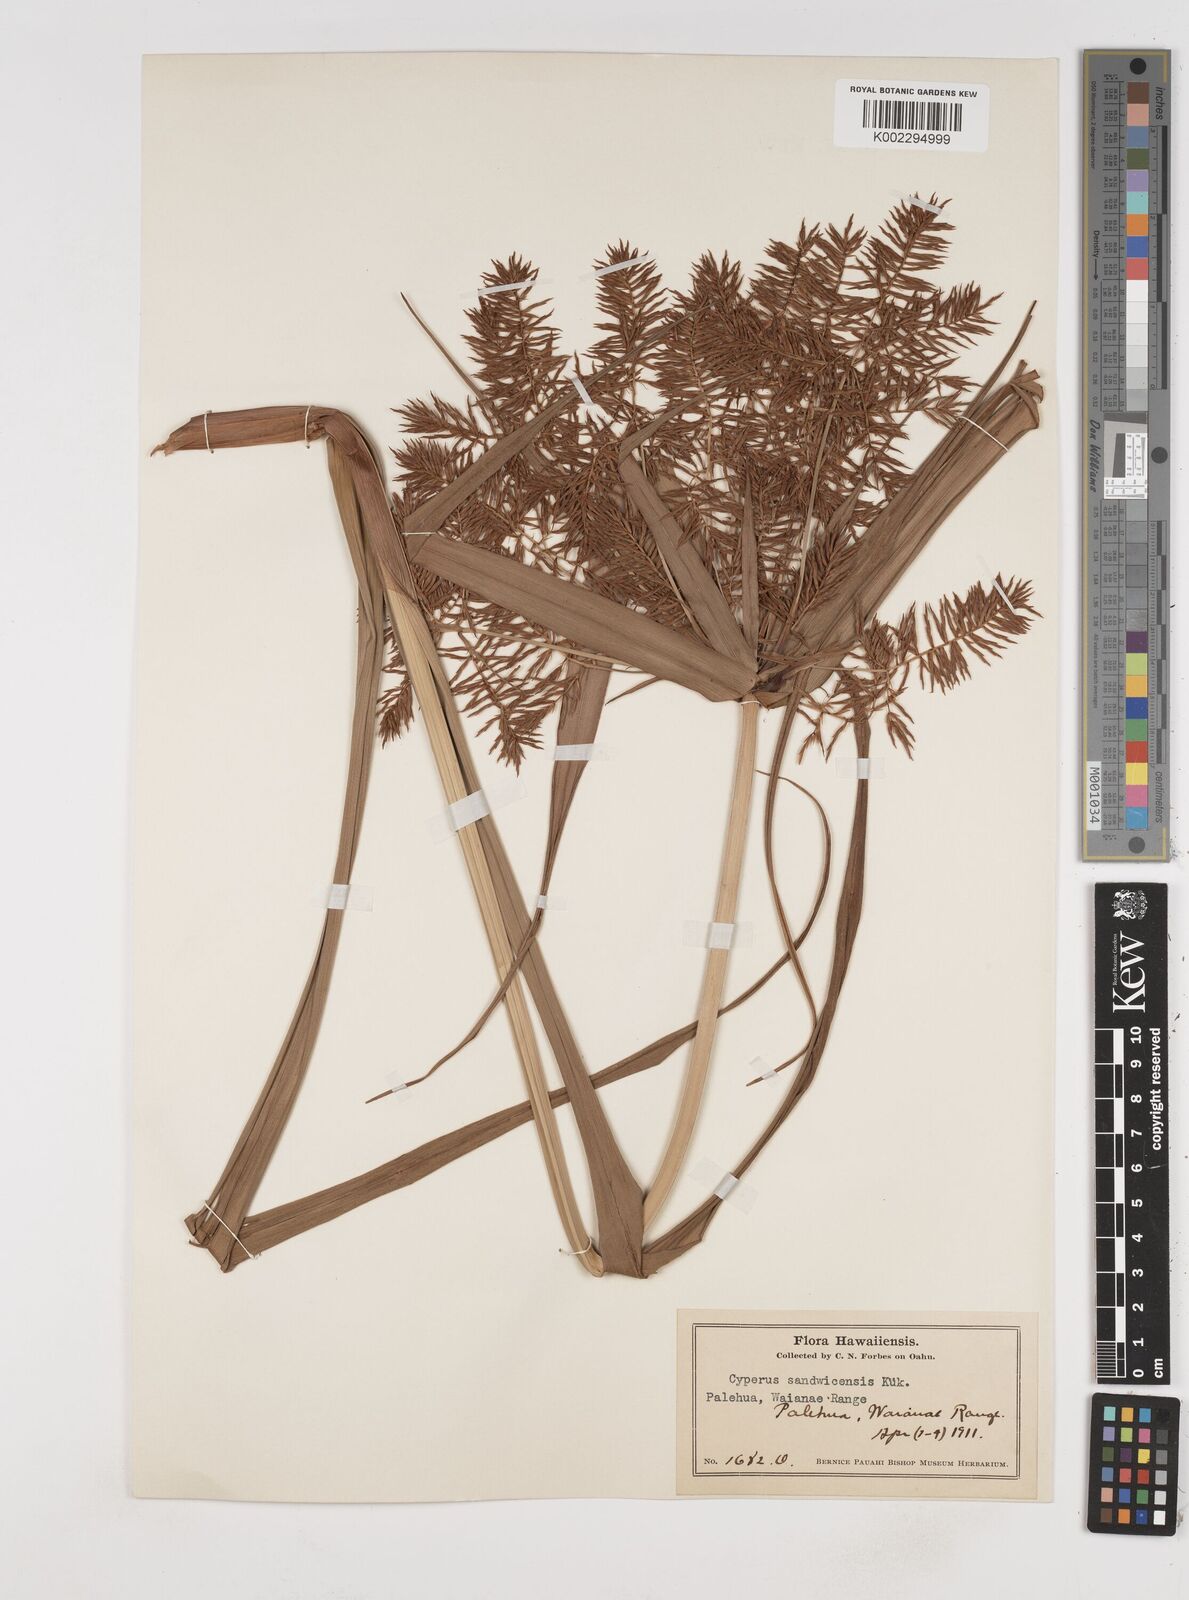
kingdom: Plantae
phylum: Tracheophyta
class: Liliopsida
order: Poales
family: Cyperaceae
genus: Cyperus
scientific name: Cyperus sandwicensis
